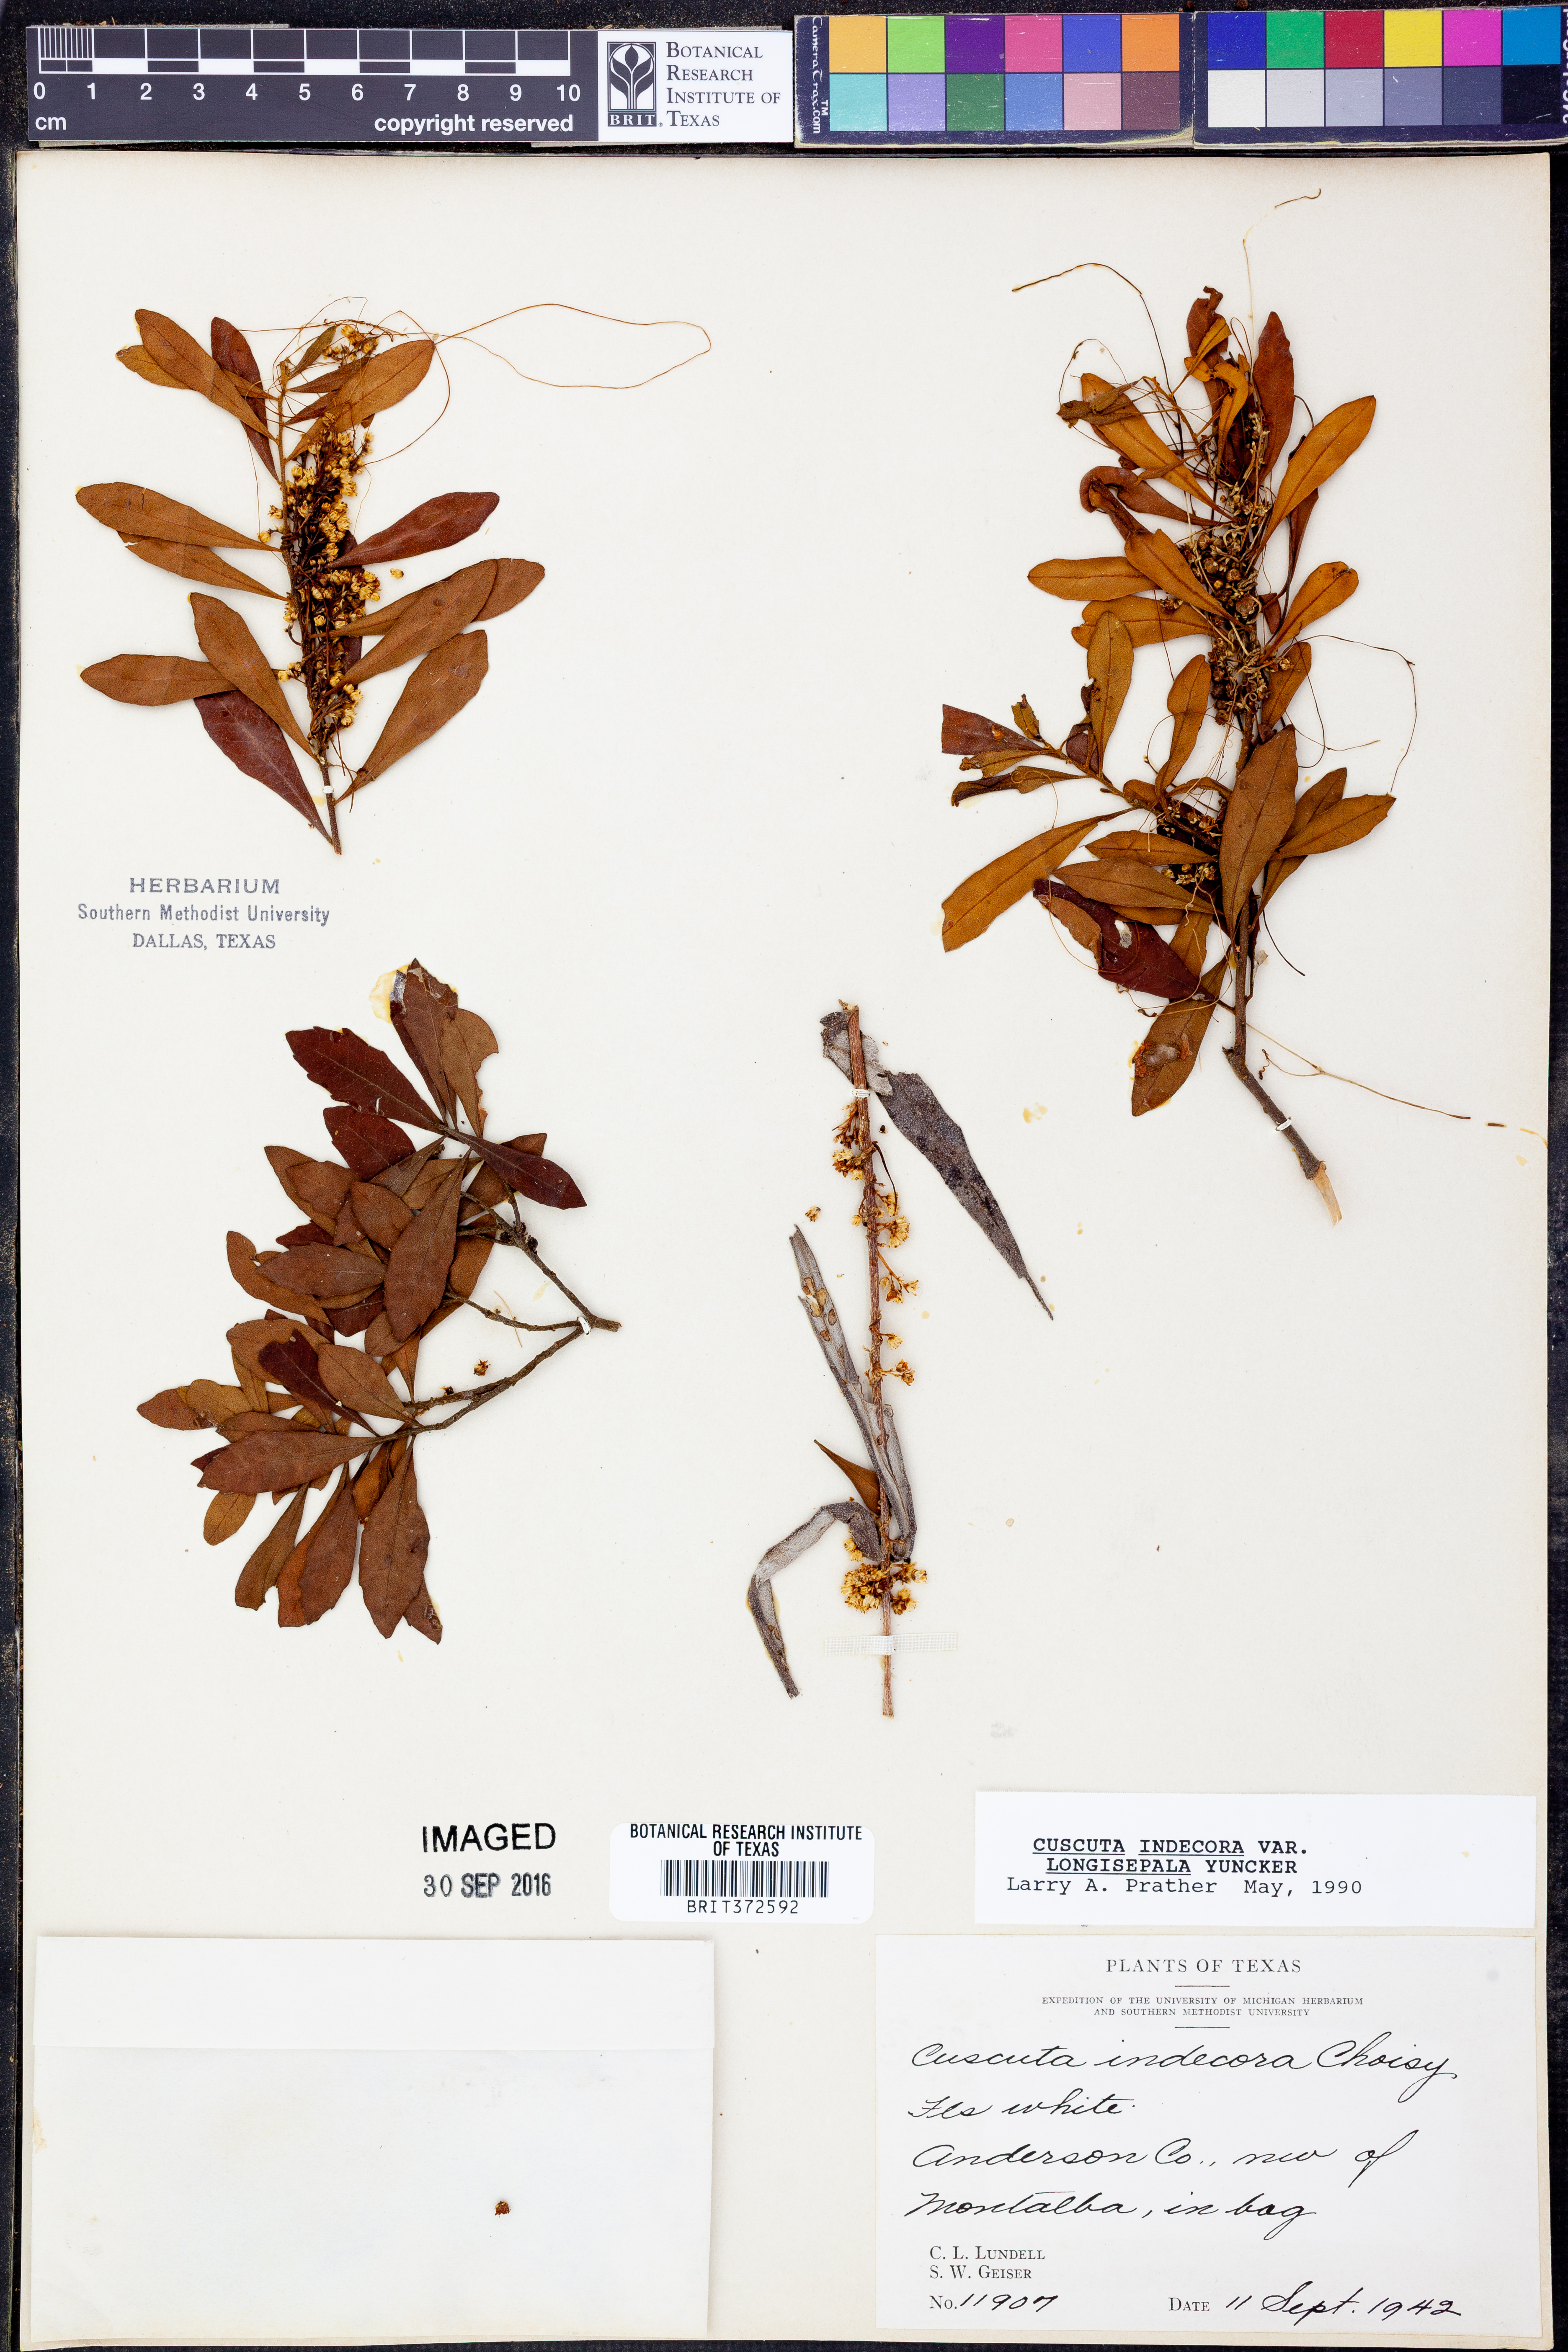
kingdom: Plantae
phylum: Tracheophyta
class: Magnoliopsida
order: Solanales
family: Convolvulaceae
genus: Cuscuta
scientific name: Cuscuta indecora
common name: Large-seed dodder
